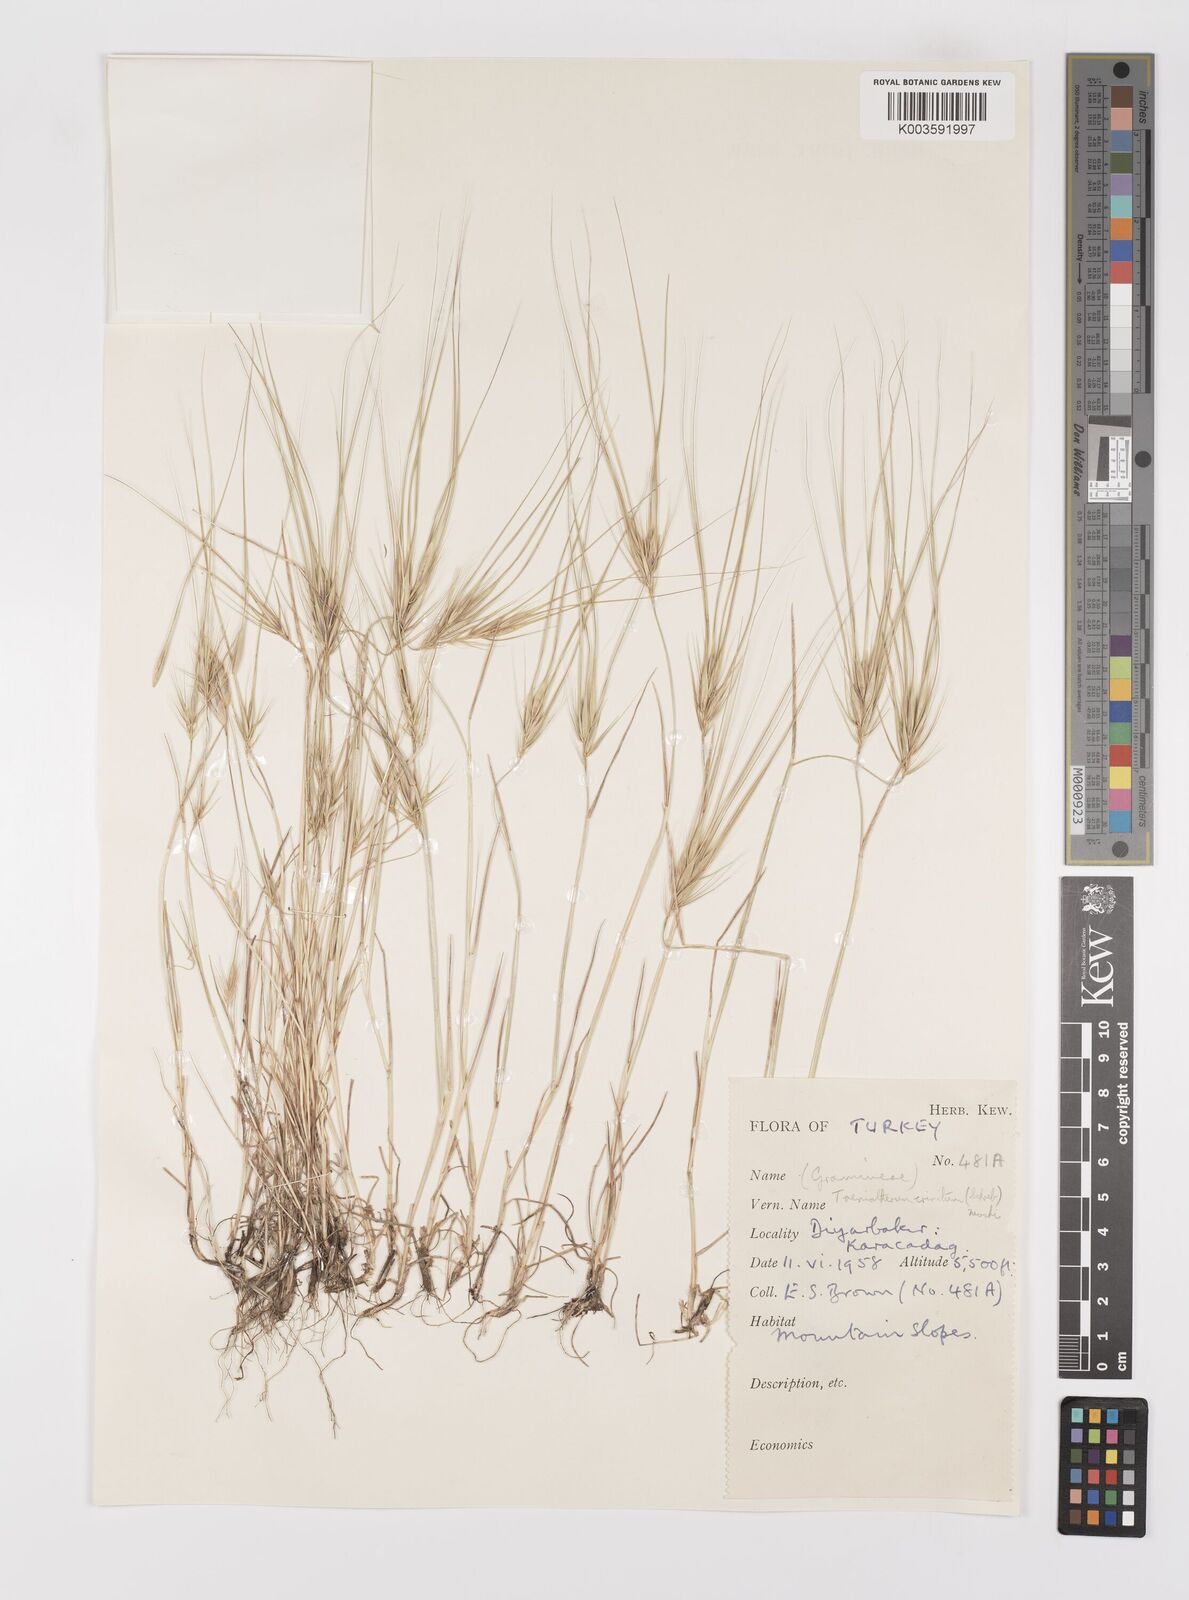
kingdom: Plantae
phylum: Tracheophyta
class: Liliopsida
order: Poales
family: Poaceae
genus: Taeniatherum
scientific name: Taeniatherum caput-medusae
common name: Medusahead
